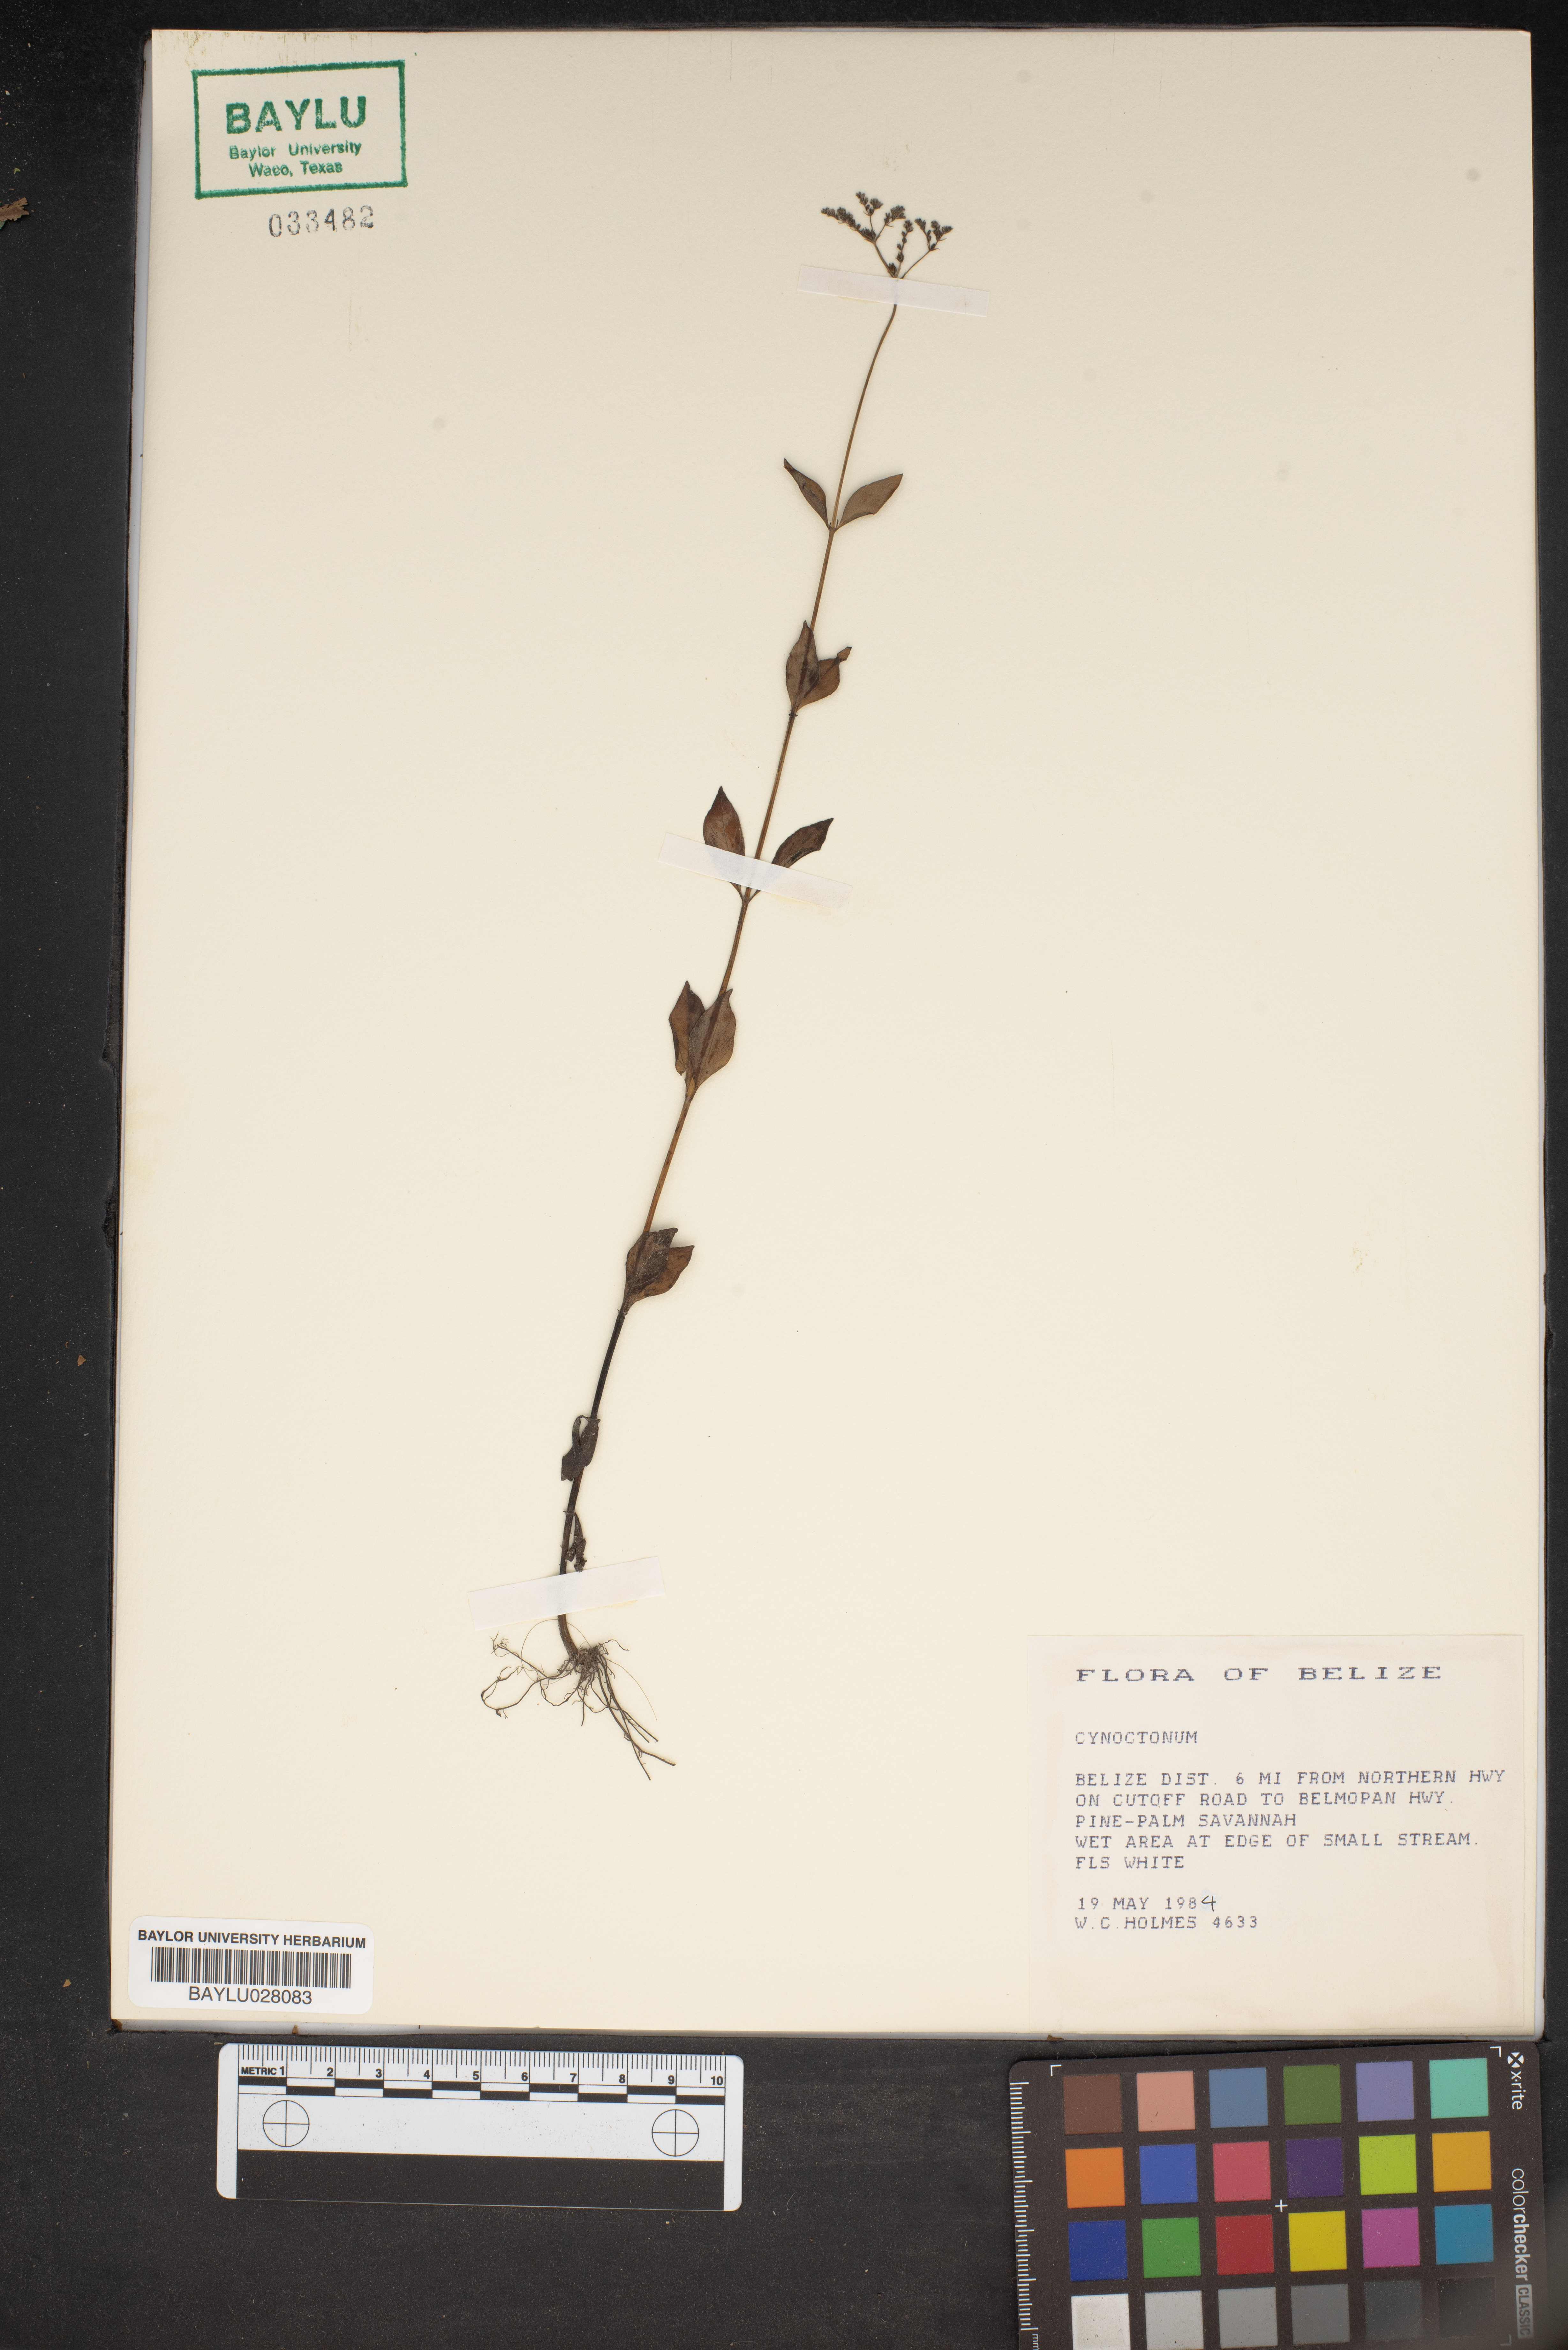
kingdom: Plantae
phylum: Tracheophyta
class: Magnoliopsida
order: Gentianales
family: Loganiaceae
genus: Mitreola
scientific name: Mitreola
